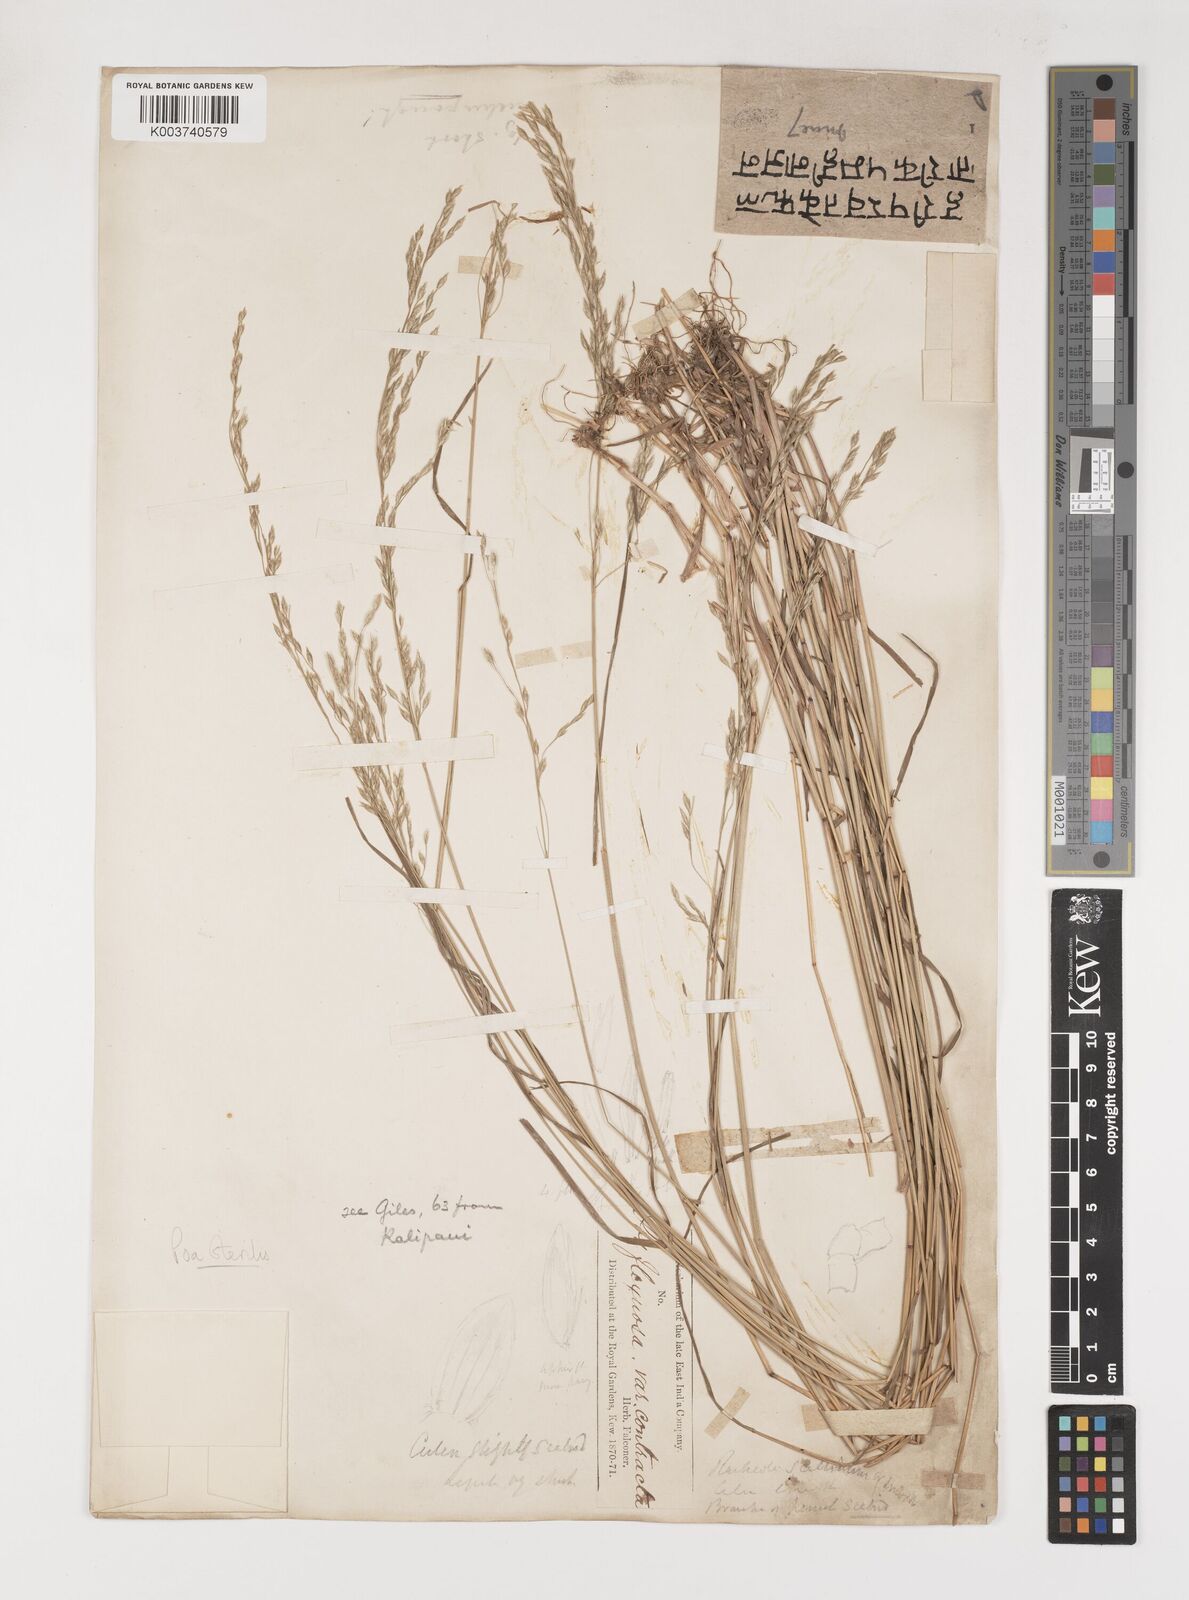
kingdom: Plantae
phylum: Tracheophyta
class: Liliopsida
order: Poales
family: Poaceae
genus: Poa
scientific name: Poa sterilis
